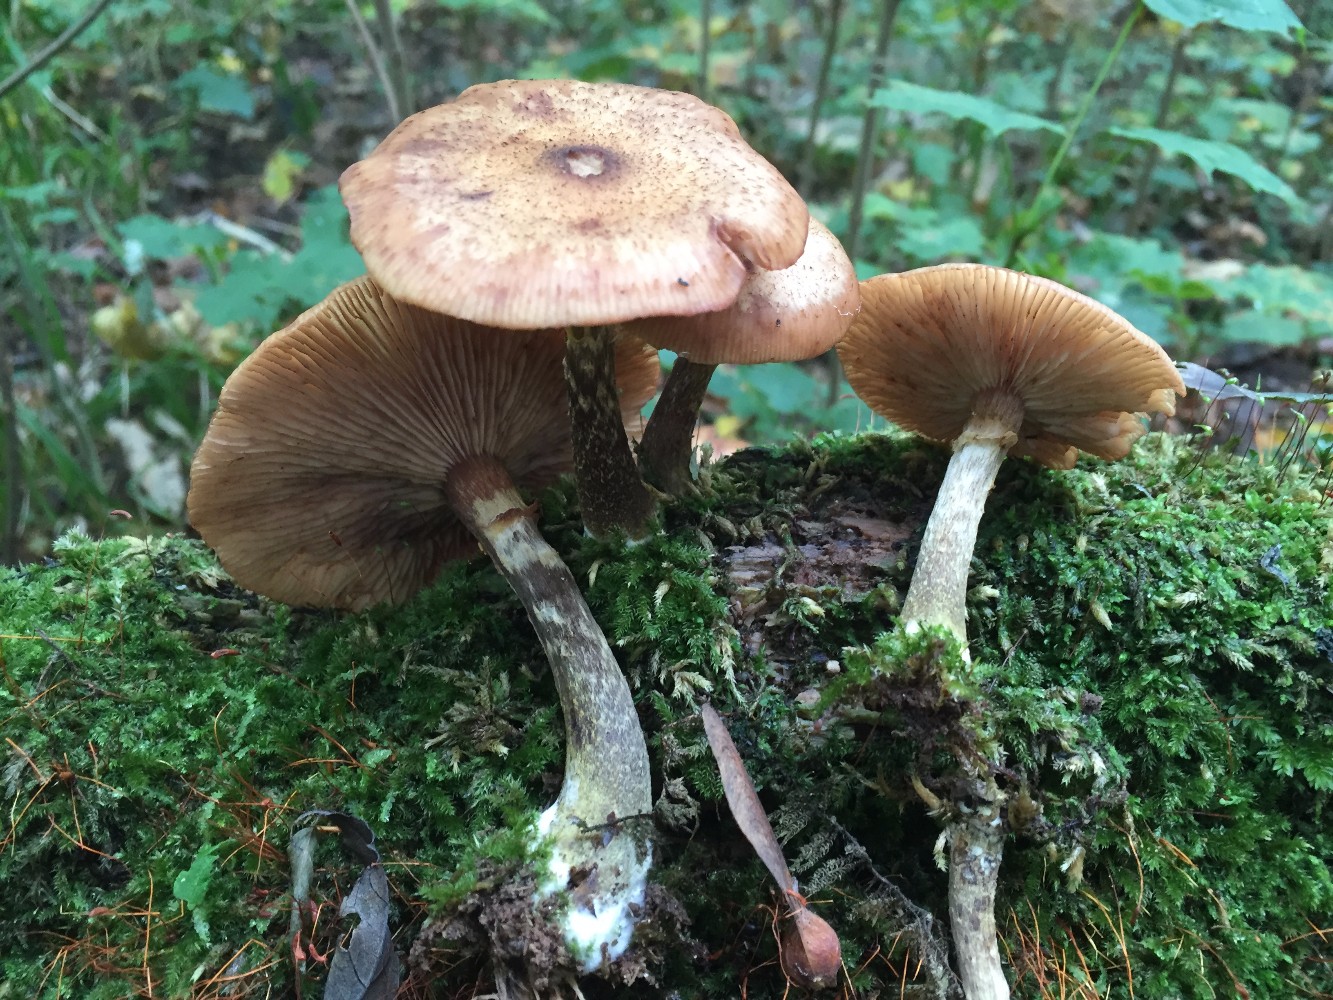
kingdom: Fungi
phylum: Basidiomycota
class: Agaricomycetes
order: Agaricales
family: Physalacriaceae
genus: Armillaria
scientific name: Armillaria lutea
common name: køllestokket honningsvamp
